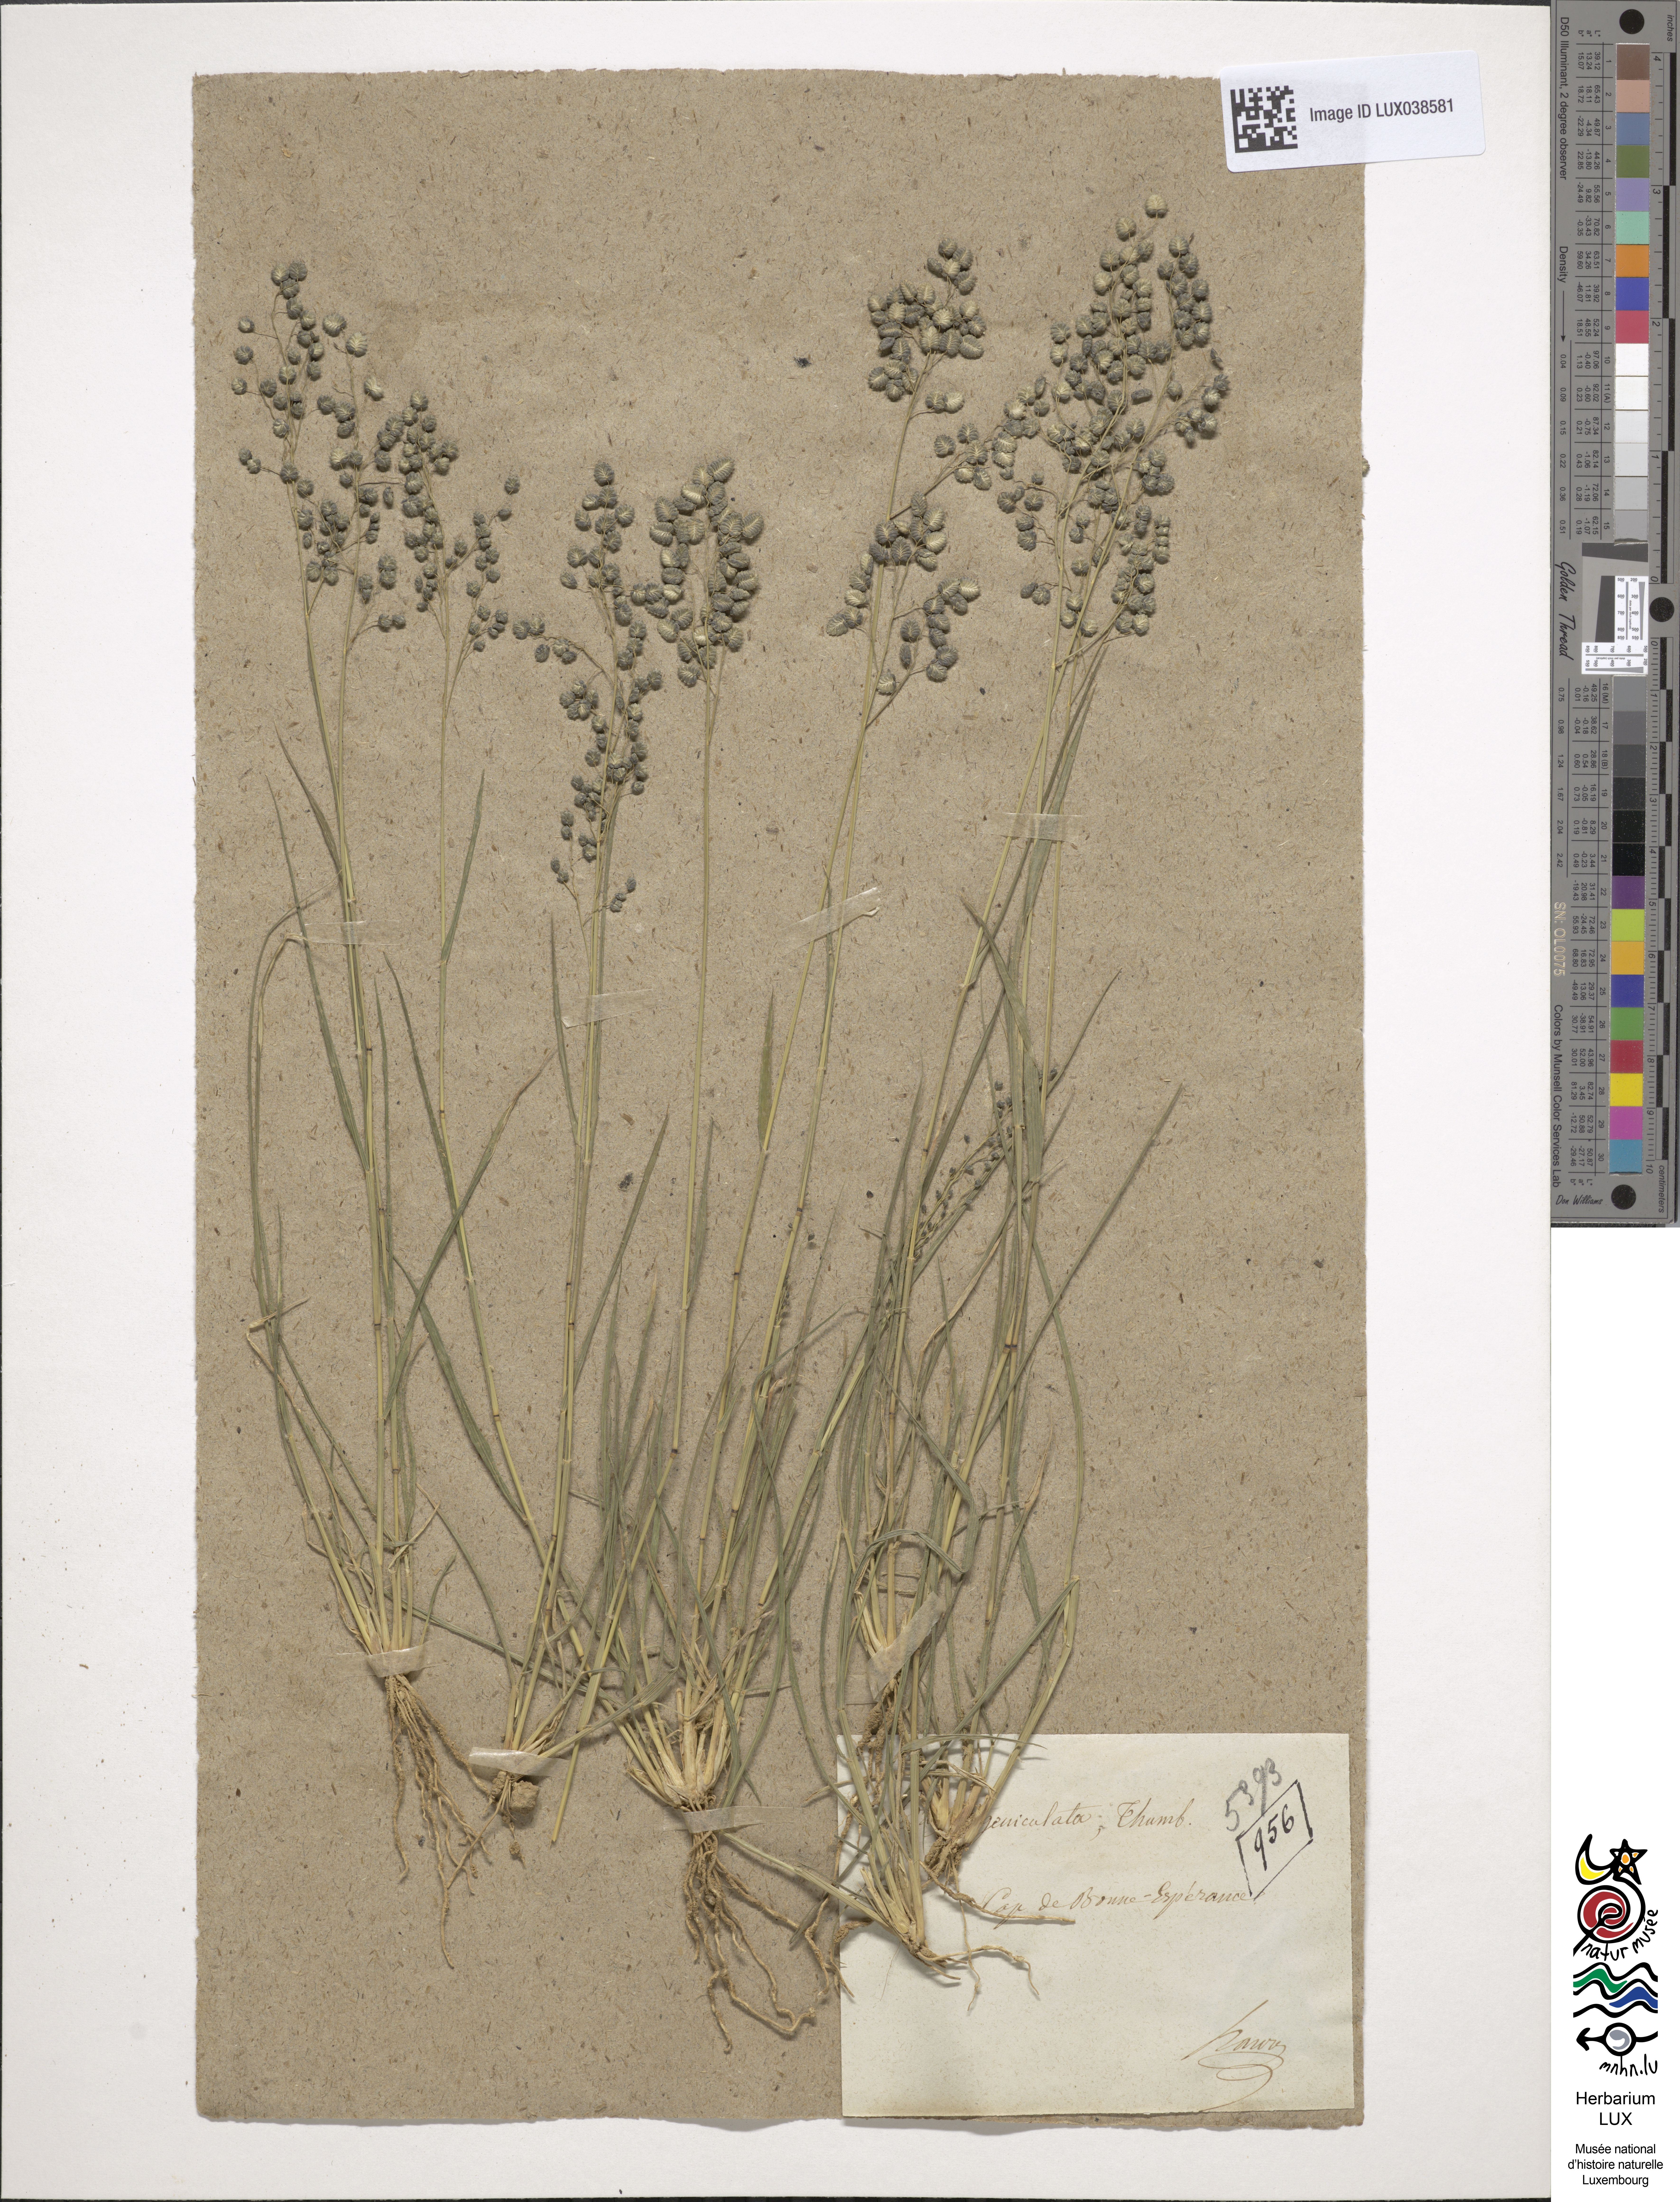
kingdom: Plantae
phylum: Tracheophyta
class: Liliopsida
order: Poales
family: Poaceae
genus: Eragrostis
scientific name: Eragrostis obtusa
